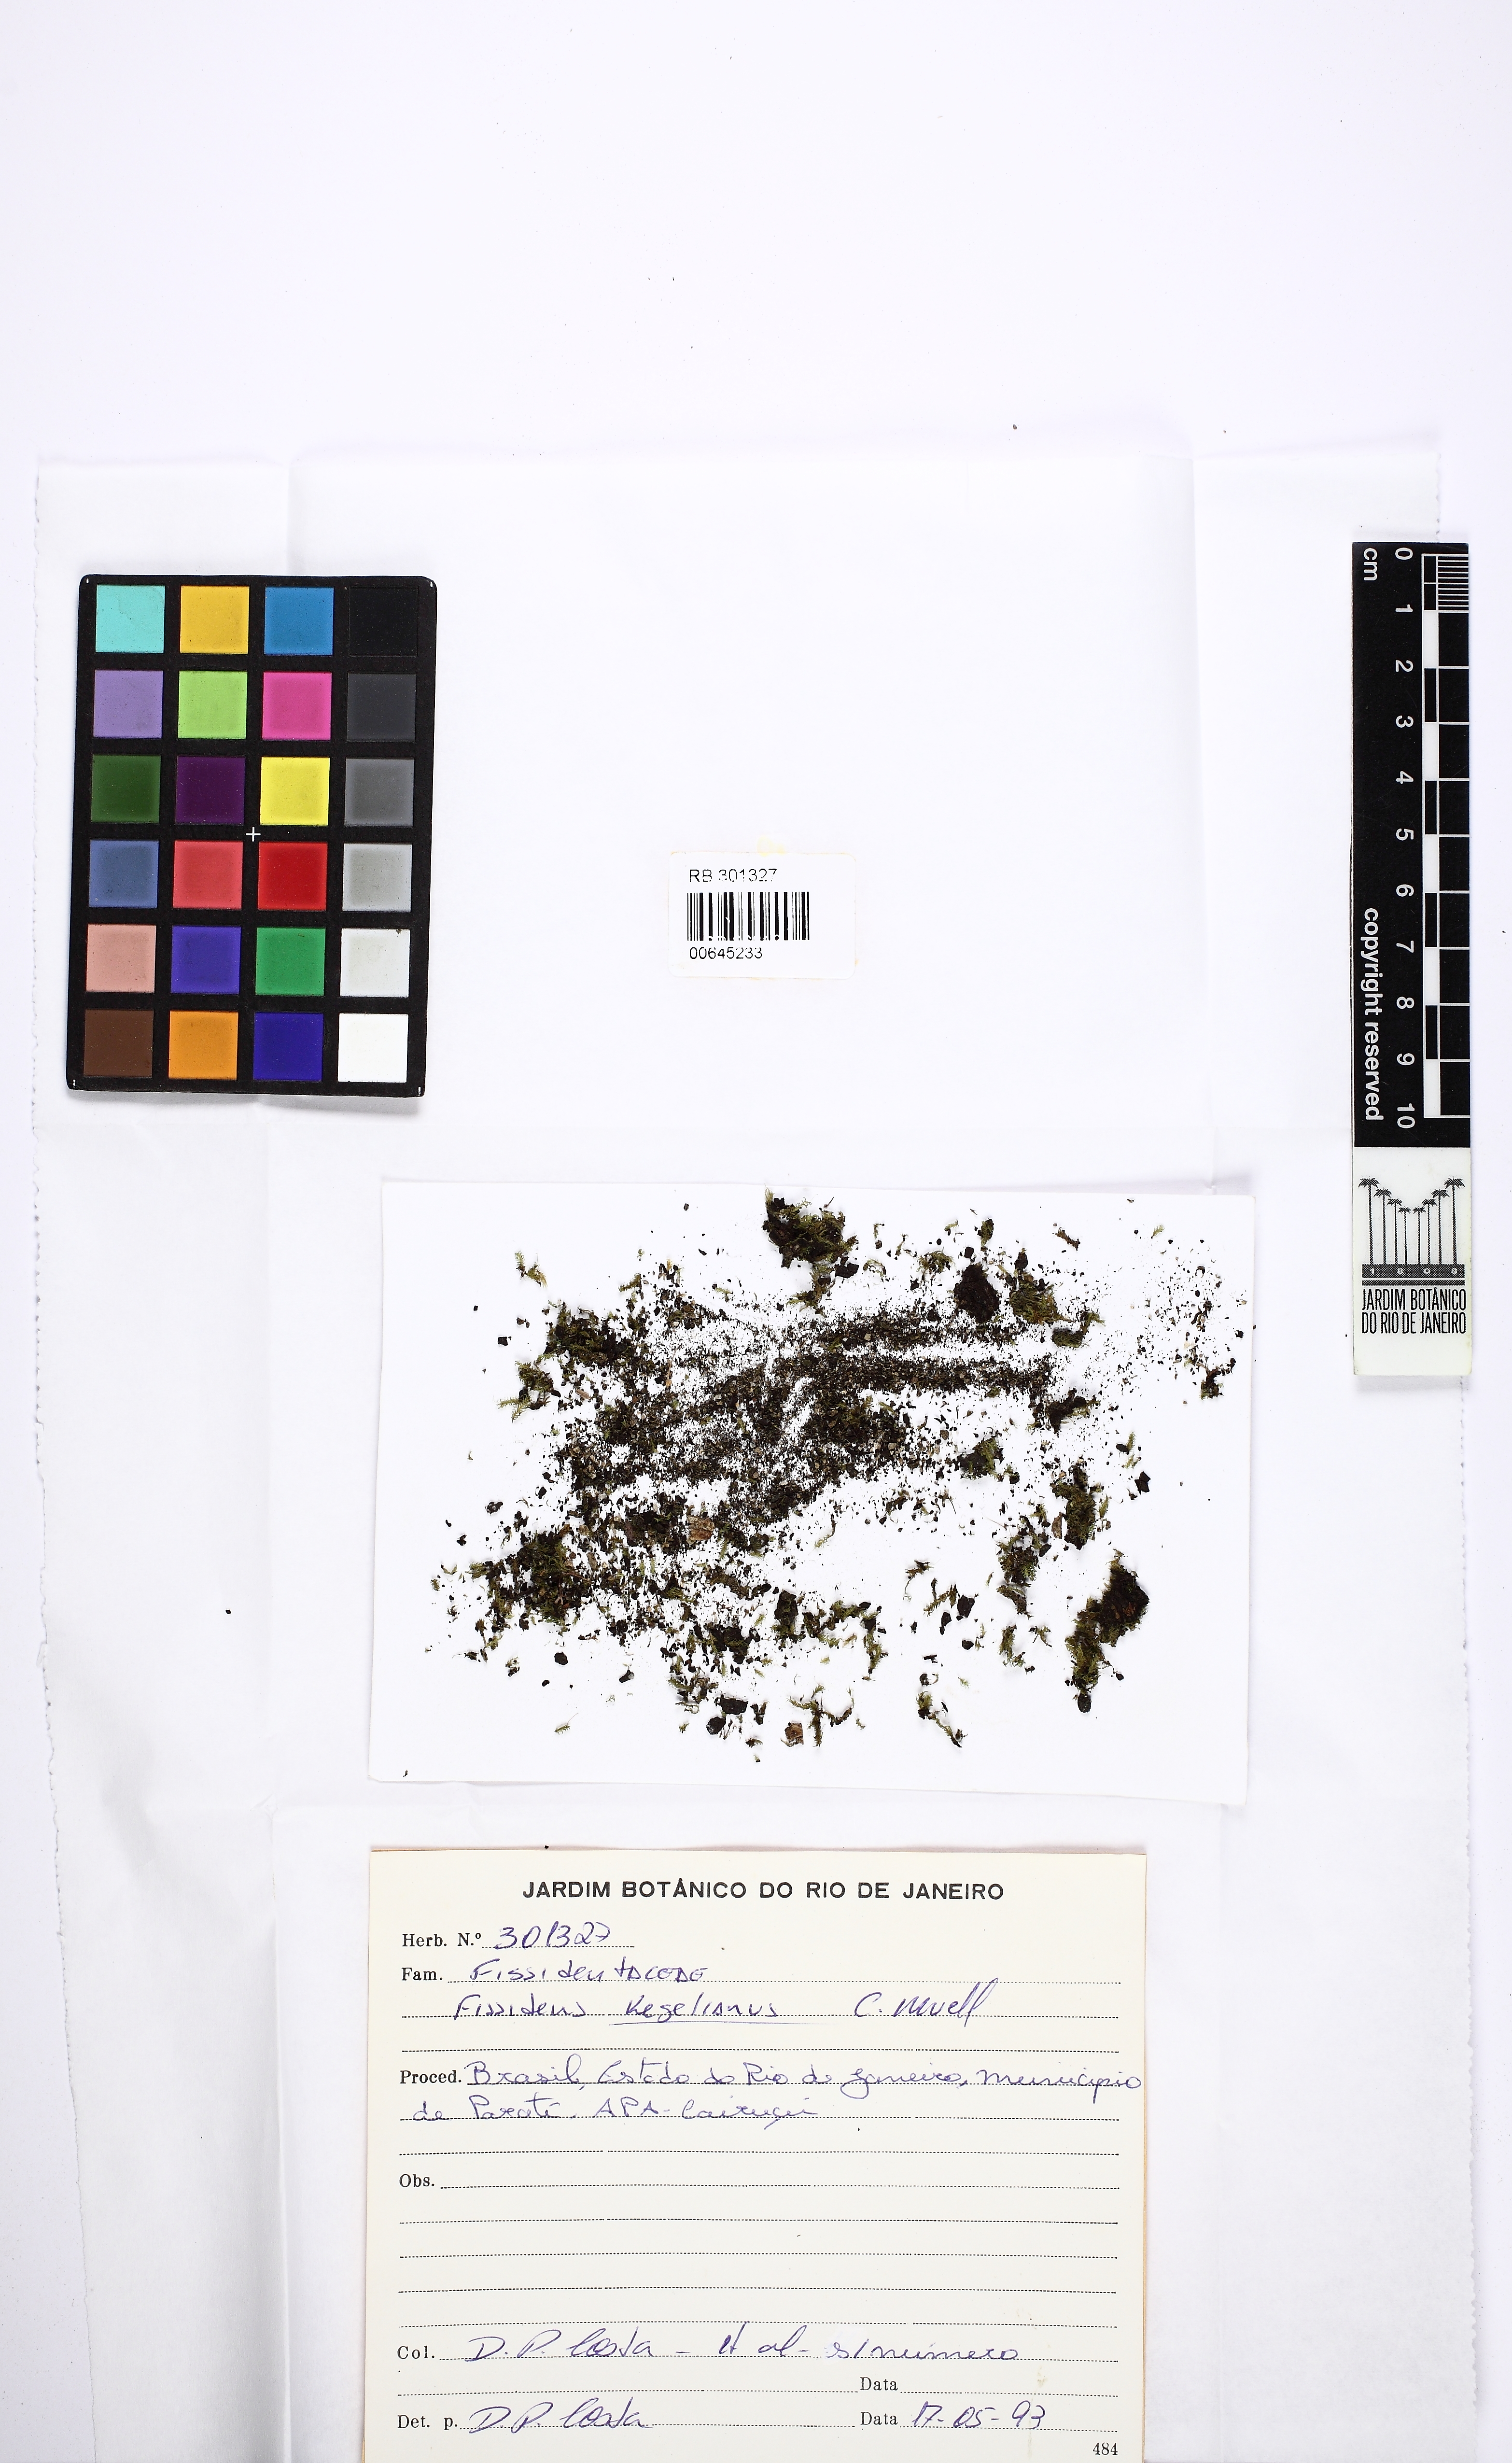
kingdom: Plantae
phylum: Bryophyta
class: Bryopsida
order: Dicranales
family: Fissidentaceae
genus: Fissidens
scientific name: Fissidens zollingeri
